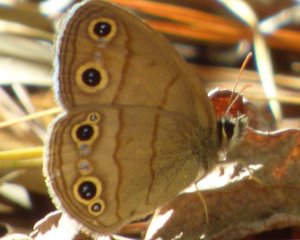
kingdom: Animalia
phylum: Arthropoda
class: Insecta
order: Lepidoptera
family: Nymphalidae
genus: Euptychia
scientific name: Euptychia cymela
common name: Little Wood Satyr
